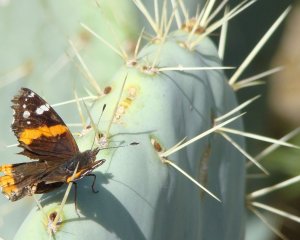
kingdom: Animalia
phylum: Arthropoda
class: Insecta
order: Lepidoptera
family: Nymphalidae
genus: Vanessa
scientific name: Vanessa atalanta
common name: Red Admiral
